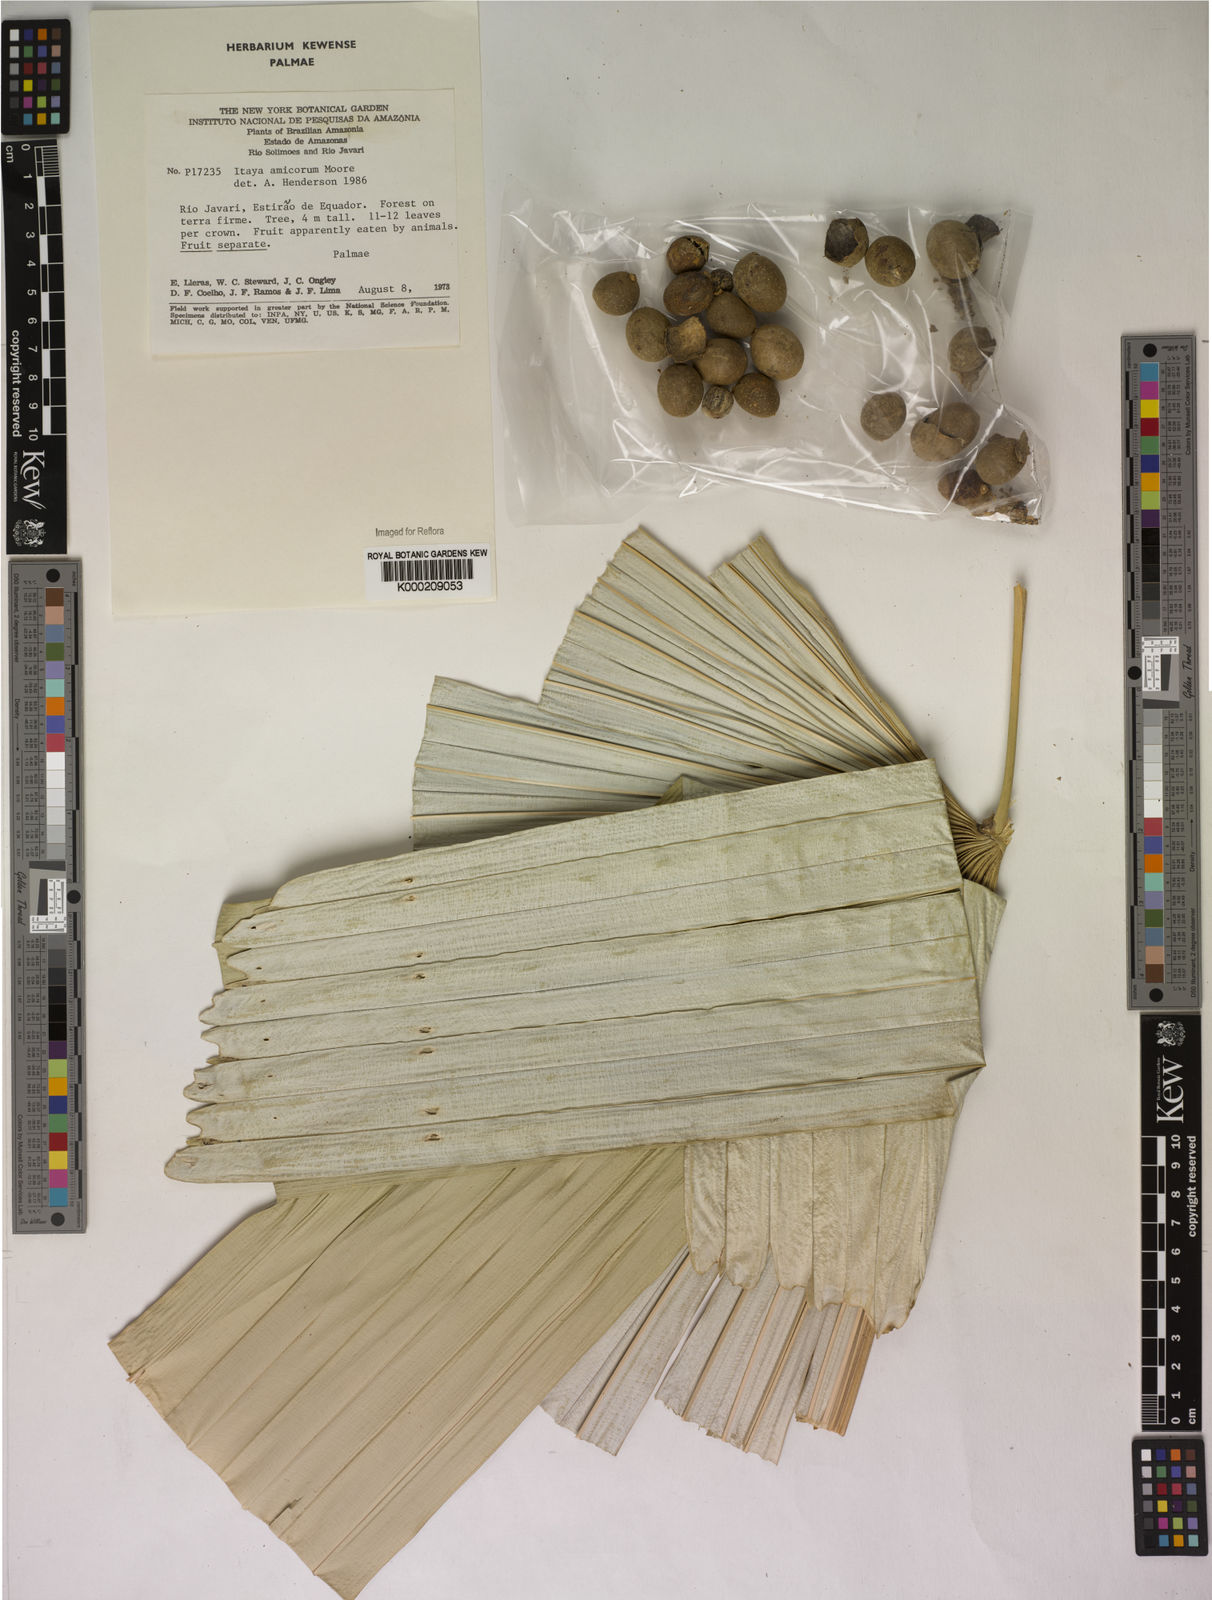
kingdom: Plantae
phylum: Tracheophyta
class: Liliopsida
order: Arecales
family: Arecaceae
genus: Itaya
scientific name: Itaya amicorum
